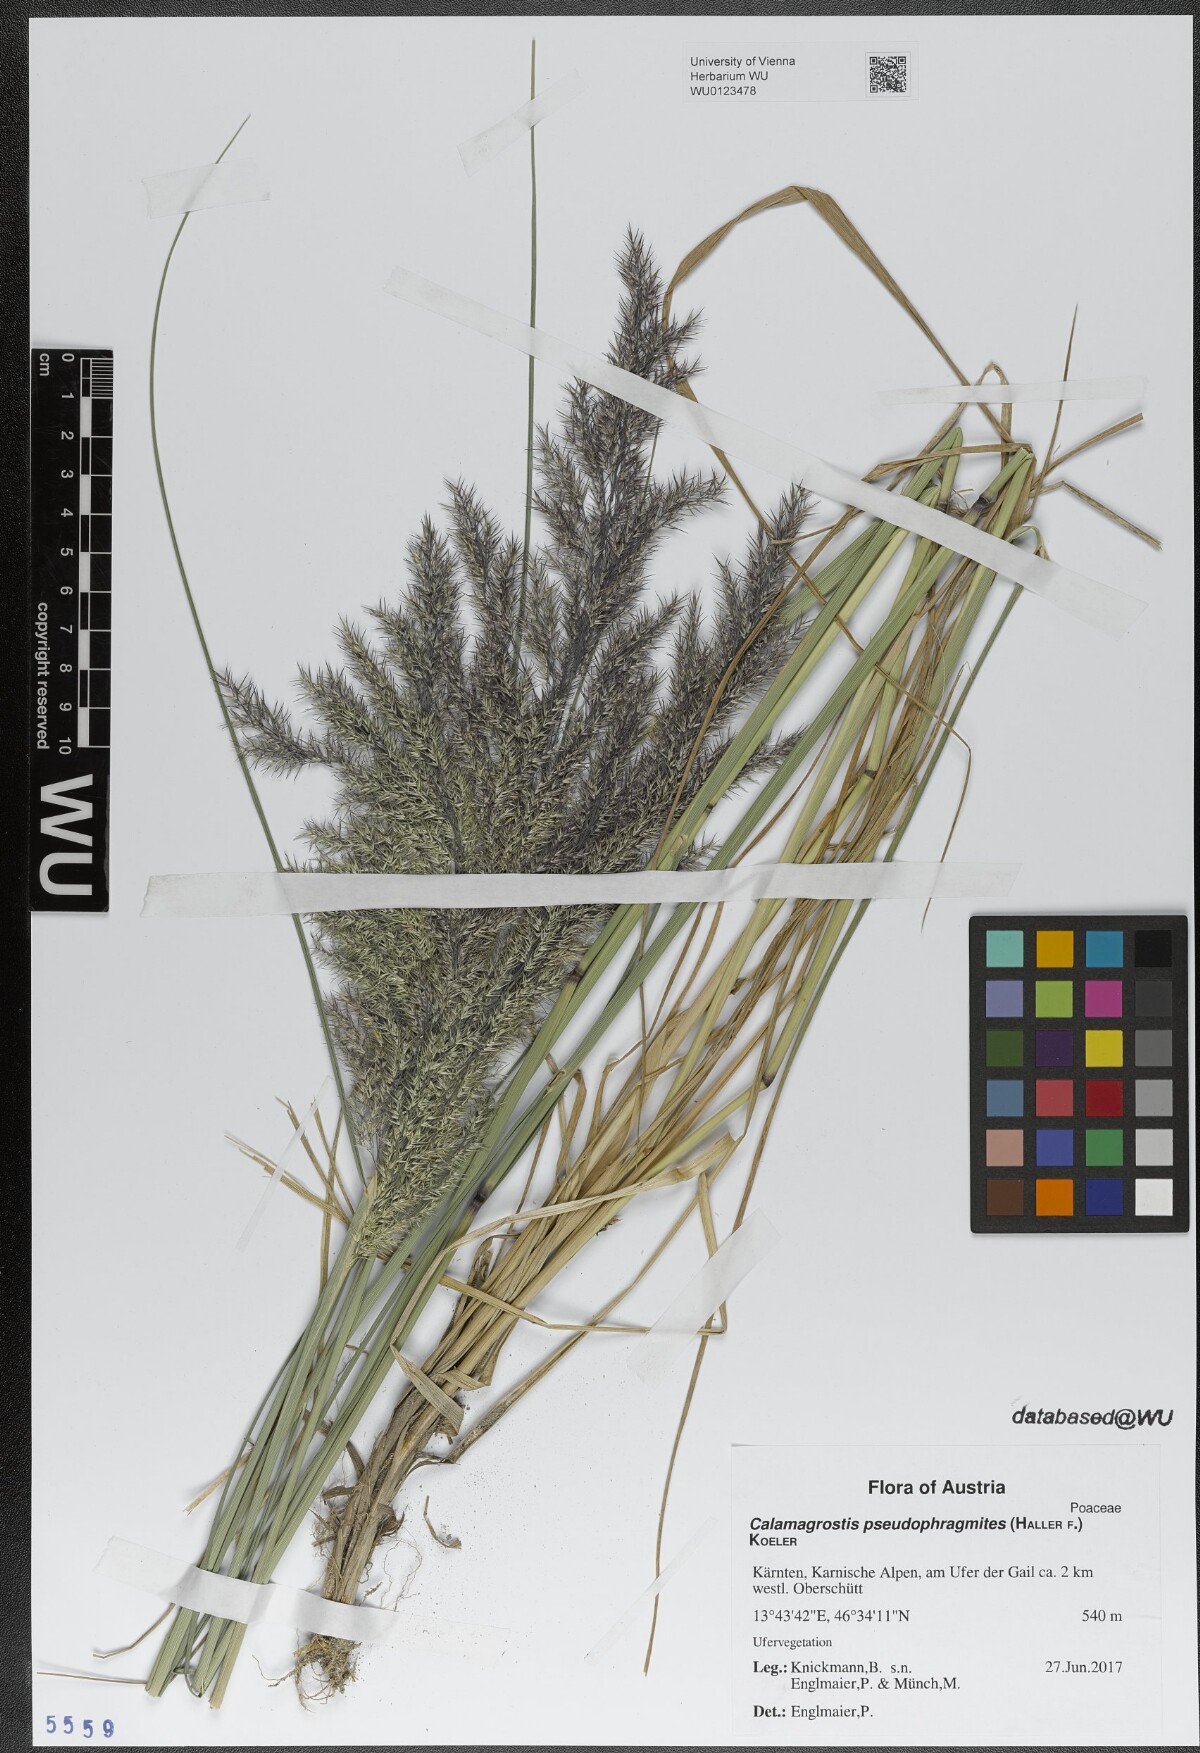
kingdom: Plantae
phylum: Tracheophyta
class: Liliopsida
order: Poales
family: Poaceae
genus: Calamagrostis
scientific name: Calamagrostis pseudophragmites
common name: Coastal small-reed
